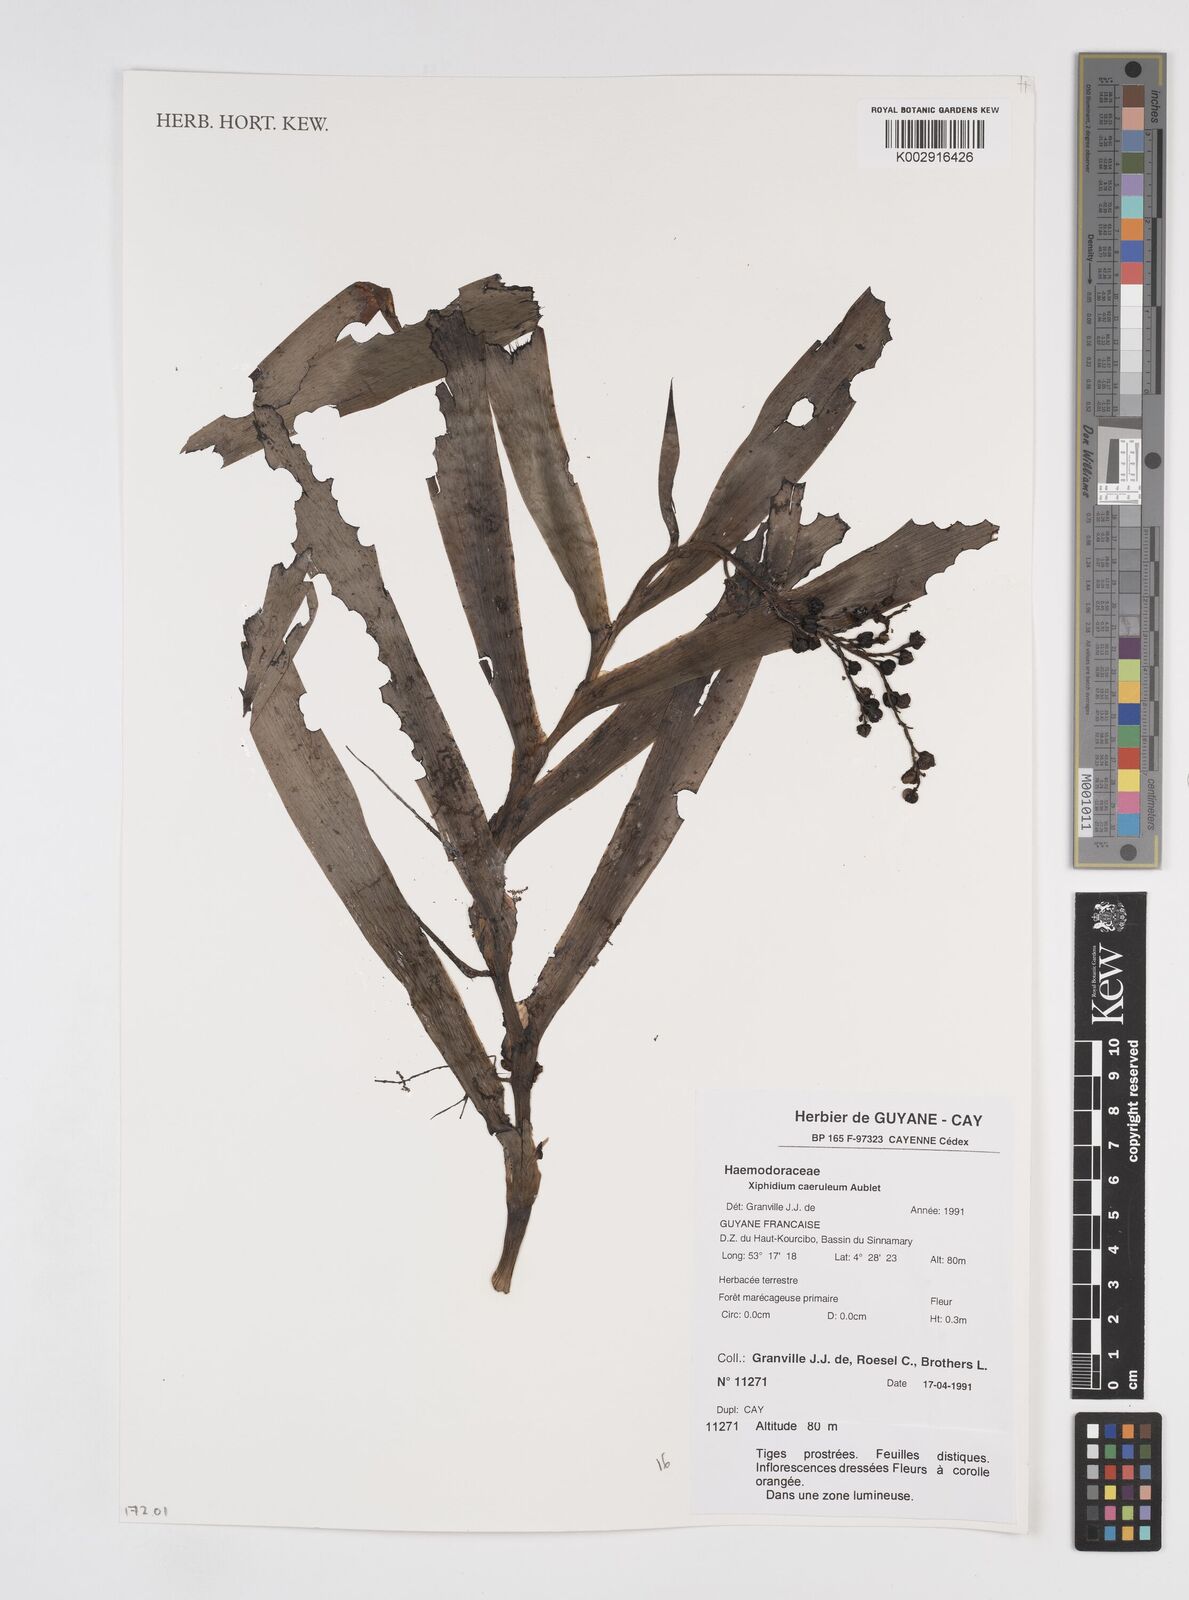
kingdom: Plantae
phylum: Tracheophyta
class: Liliopsida
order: Commelinales
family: Haemodoraceae
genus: Xiphidium
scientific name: Xiphidium caeruleum
